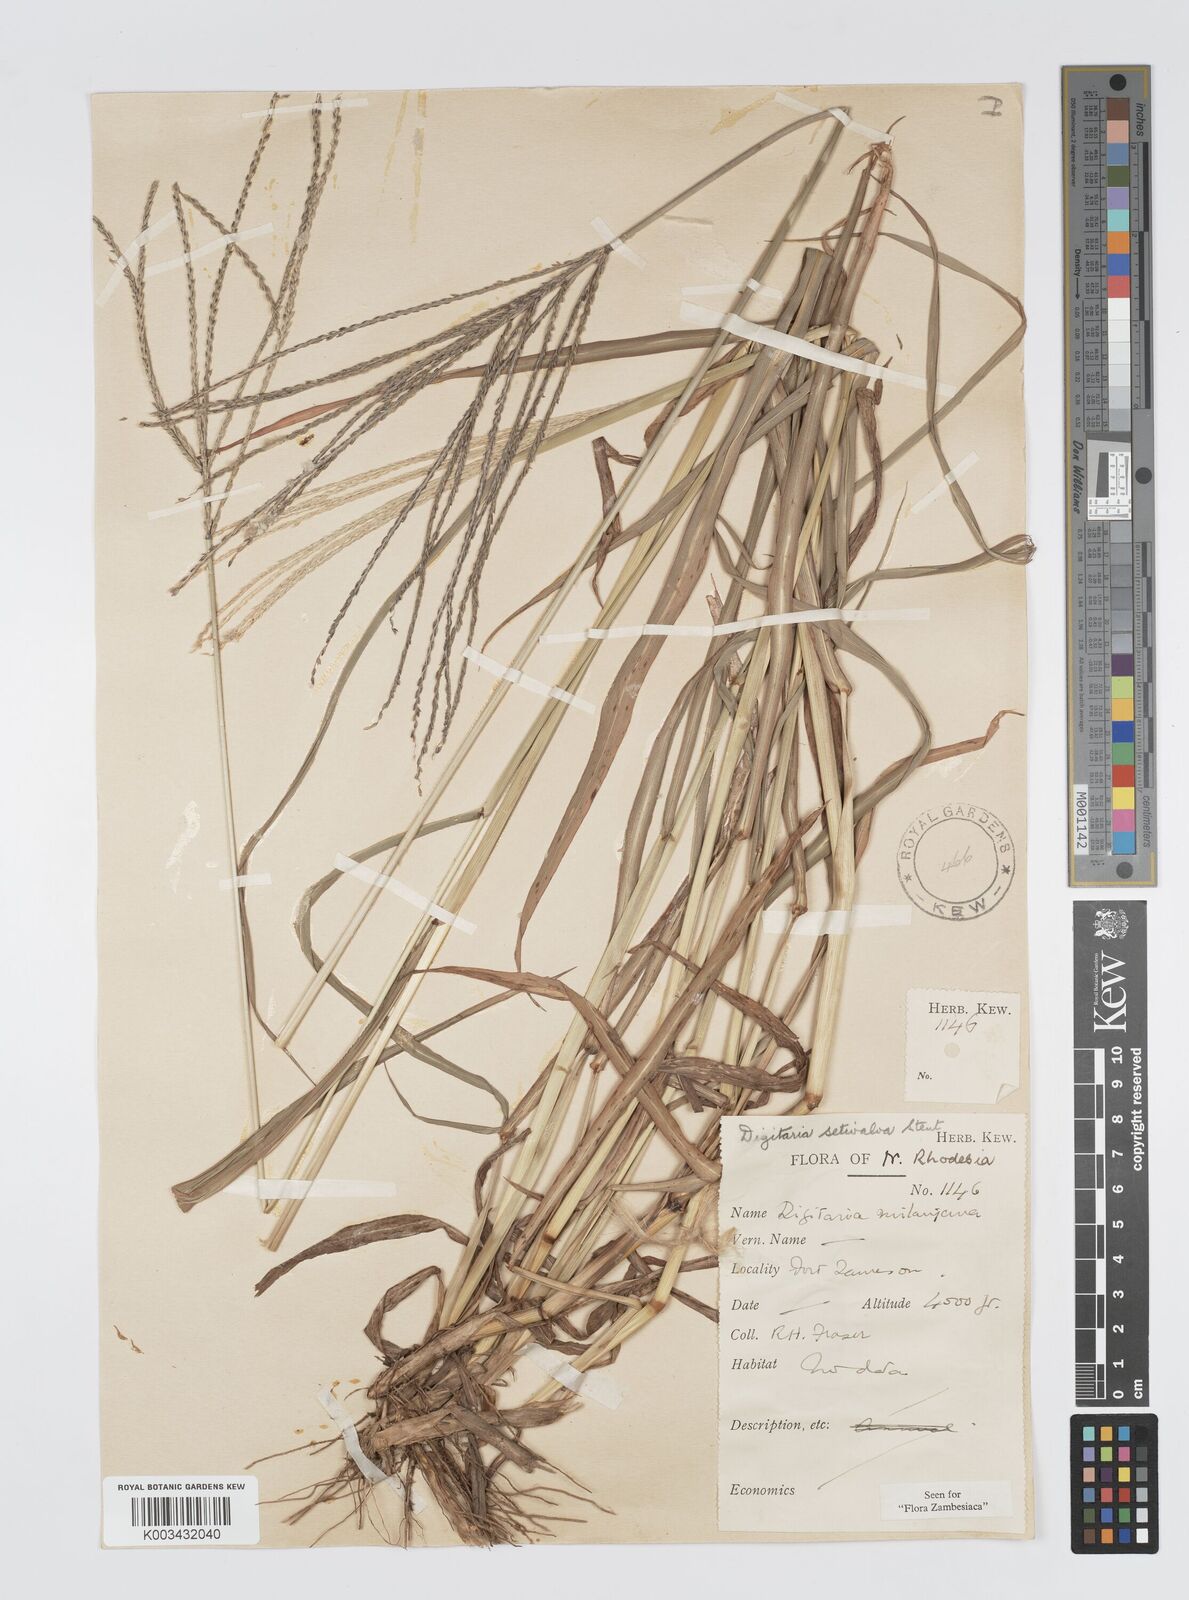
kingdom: Plantae
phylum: Tracheophyta
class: Liliopsida
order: Poales
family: Poaceae
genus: Digitaria
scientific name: Digitaria milanjiana
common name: Madagascar crabgrass
